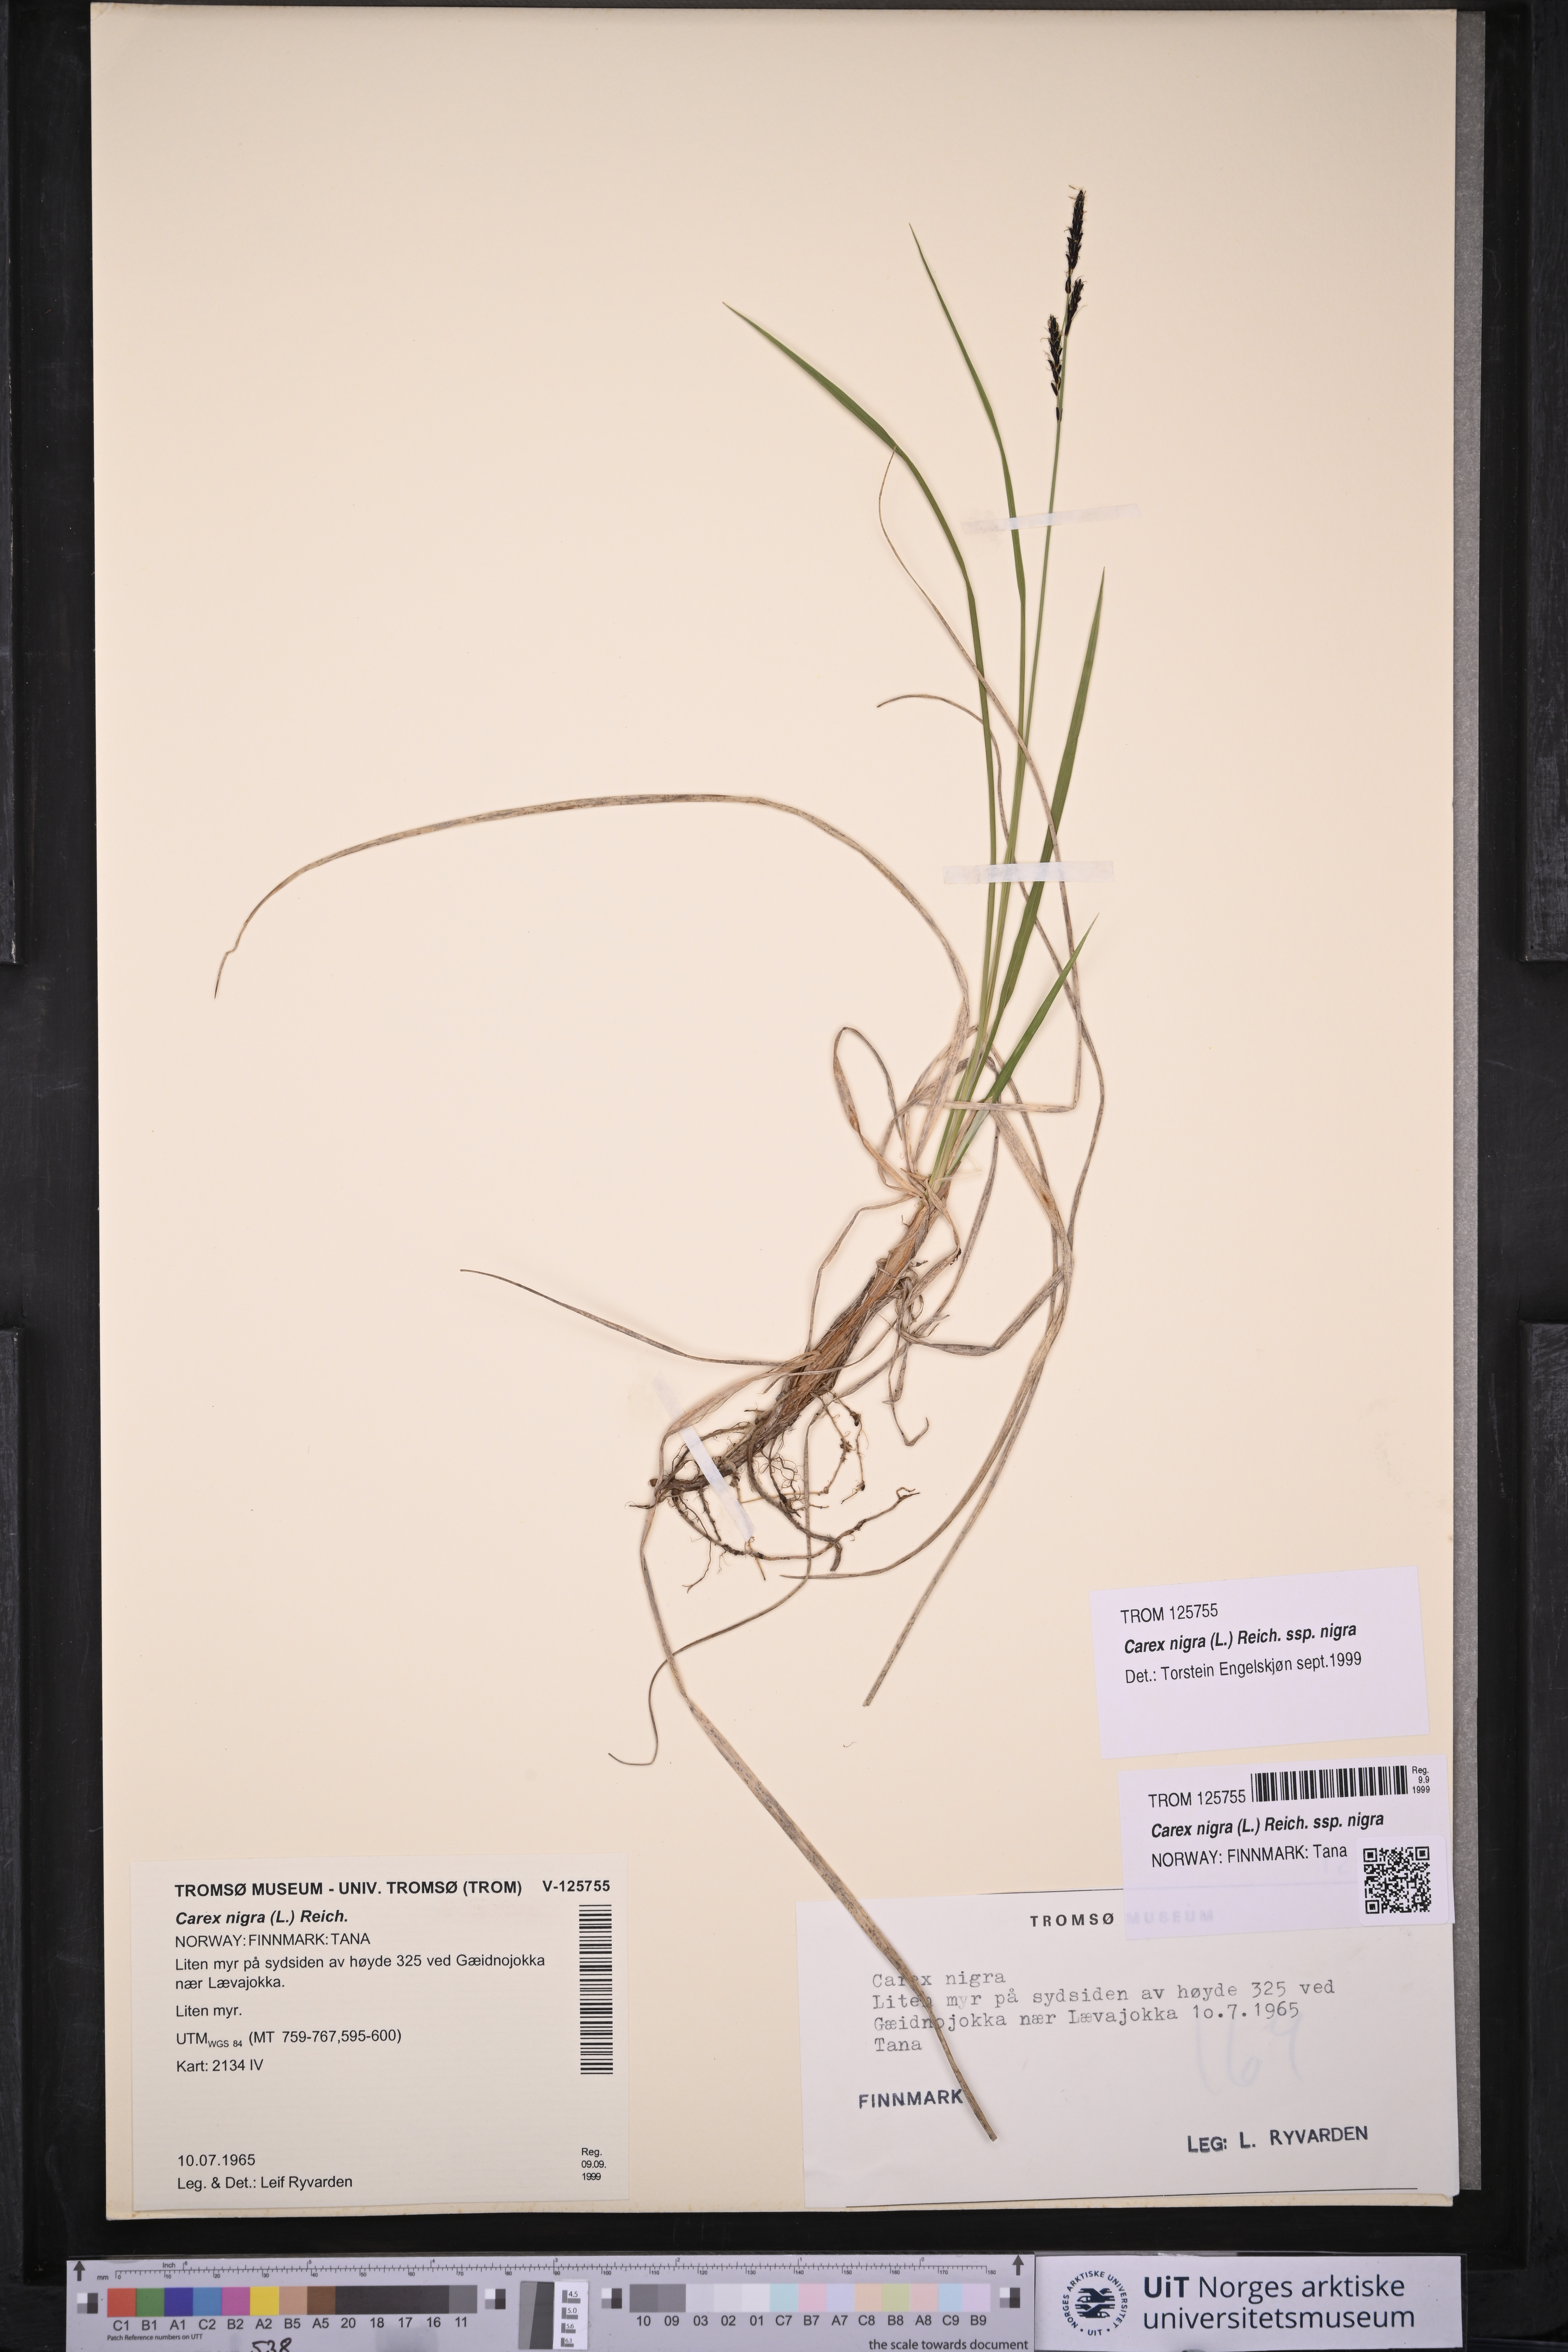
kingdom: Plantae
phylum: Tracheophyta
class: Liliopsida
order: Poales
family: Cyperaceae
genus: Carex
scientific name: Carex nigra
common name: Common sedge
